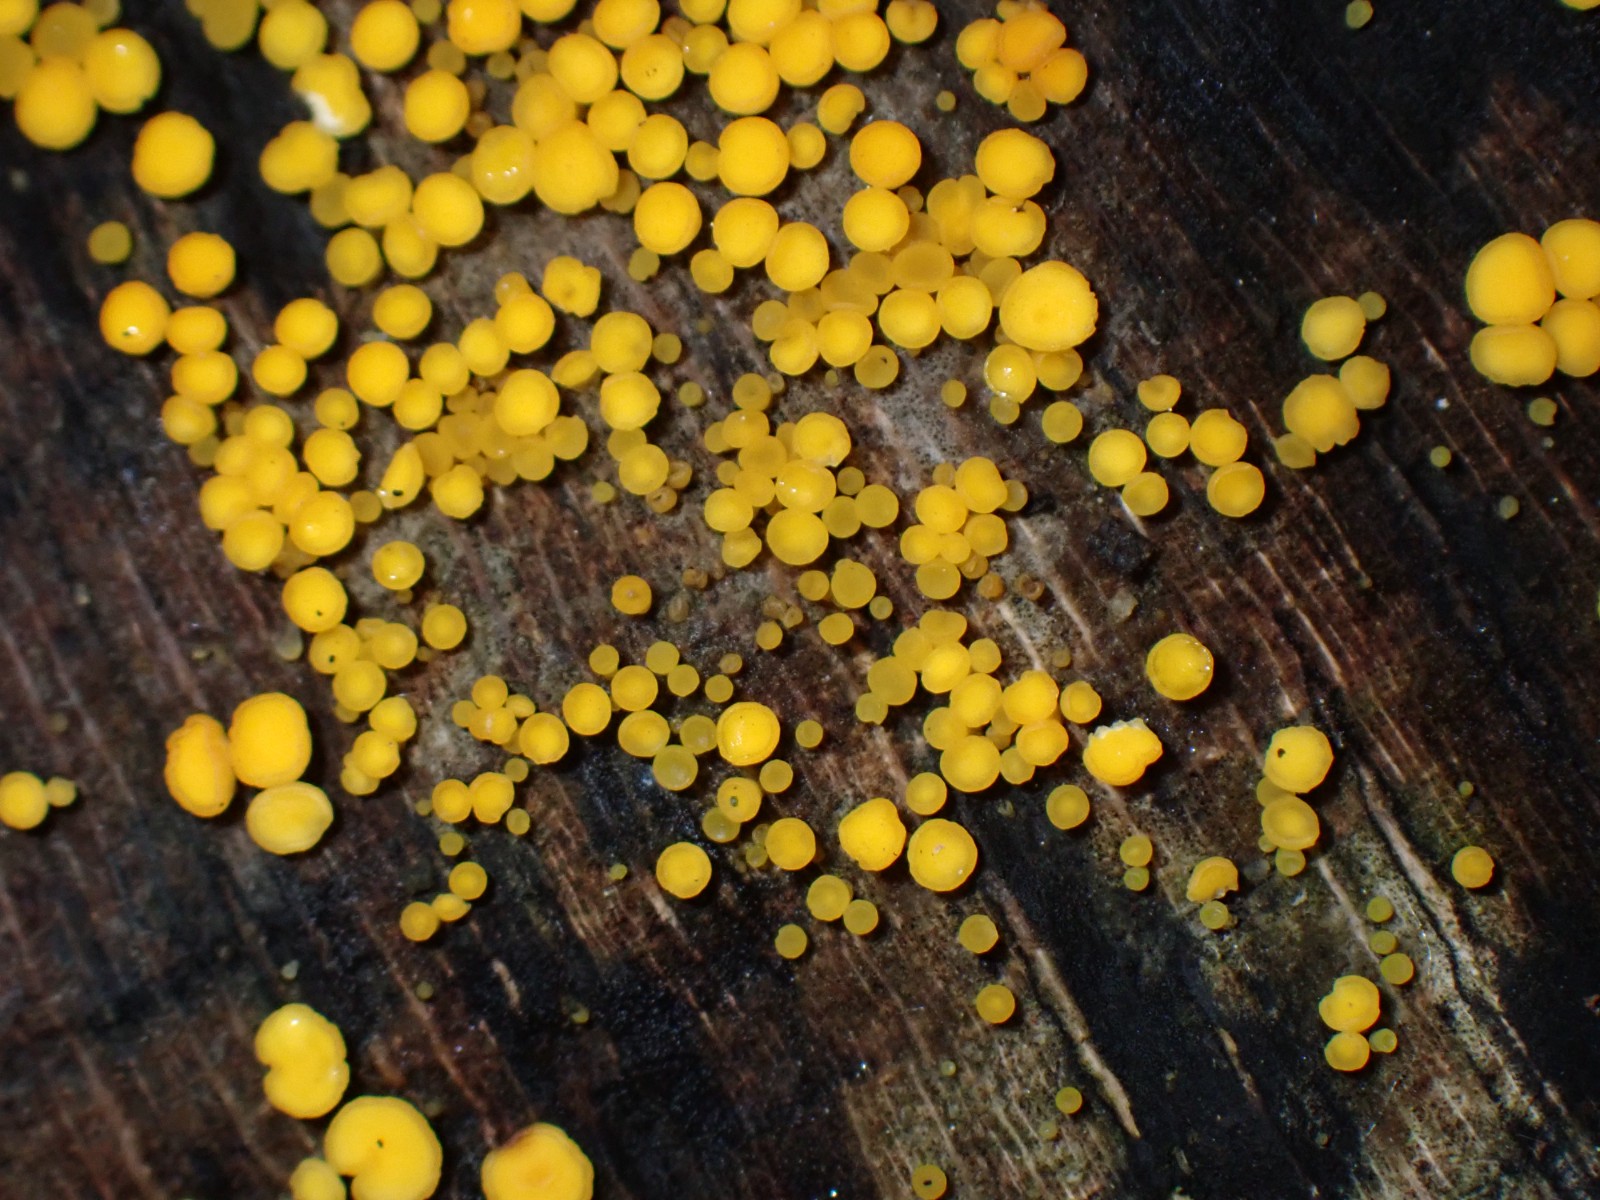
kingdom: Fungi
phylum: Ascomycota
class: Leotiomycetes
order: Helotiales
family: Pezizellaceae
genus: Calycina
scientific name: Calycina citrina
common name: almindelig gulskive
